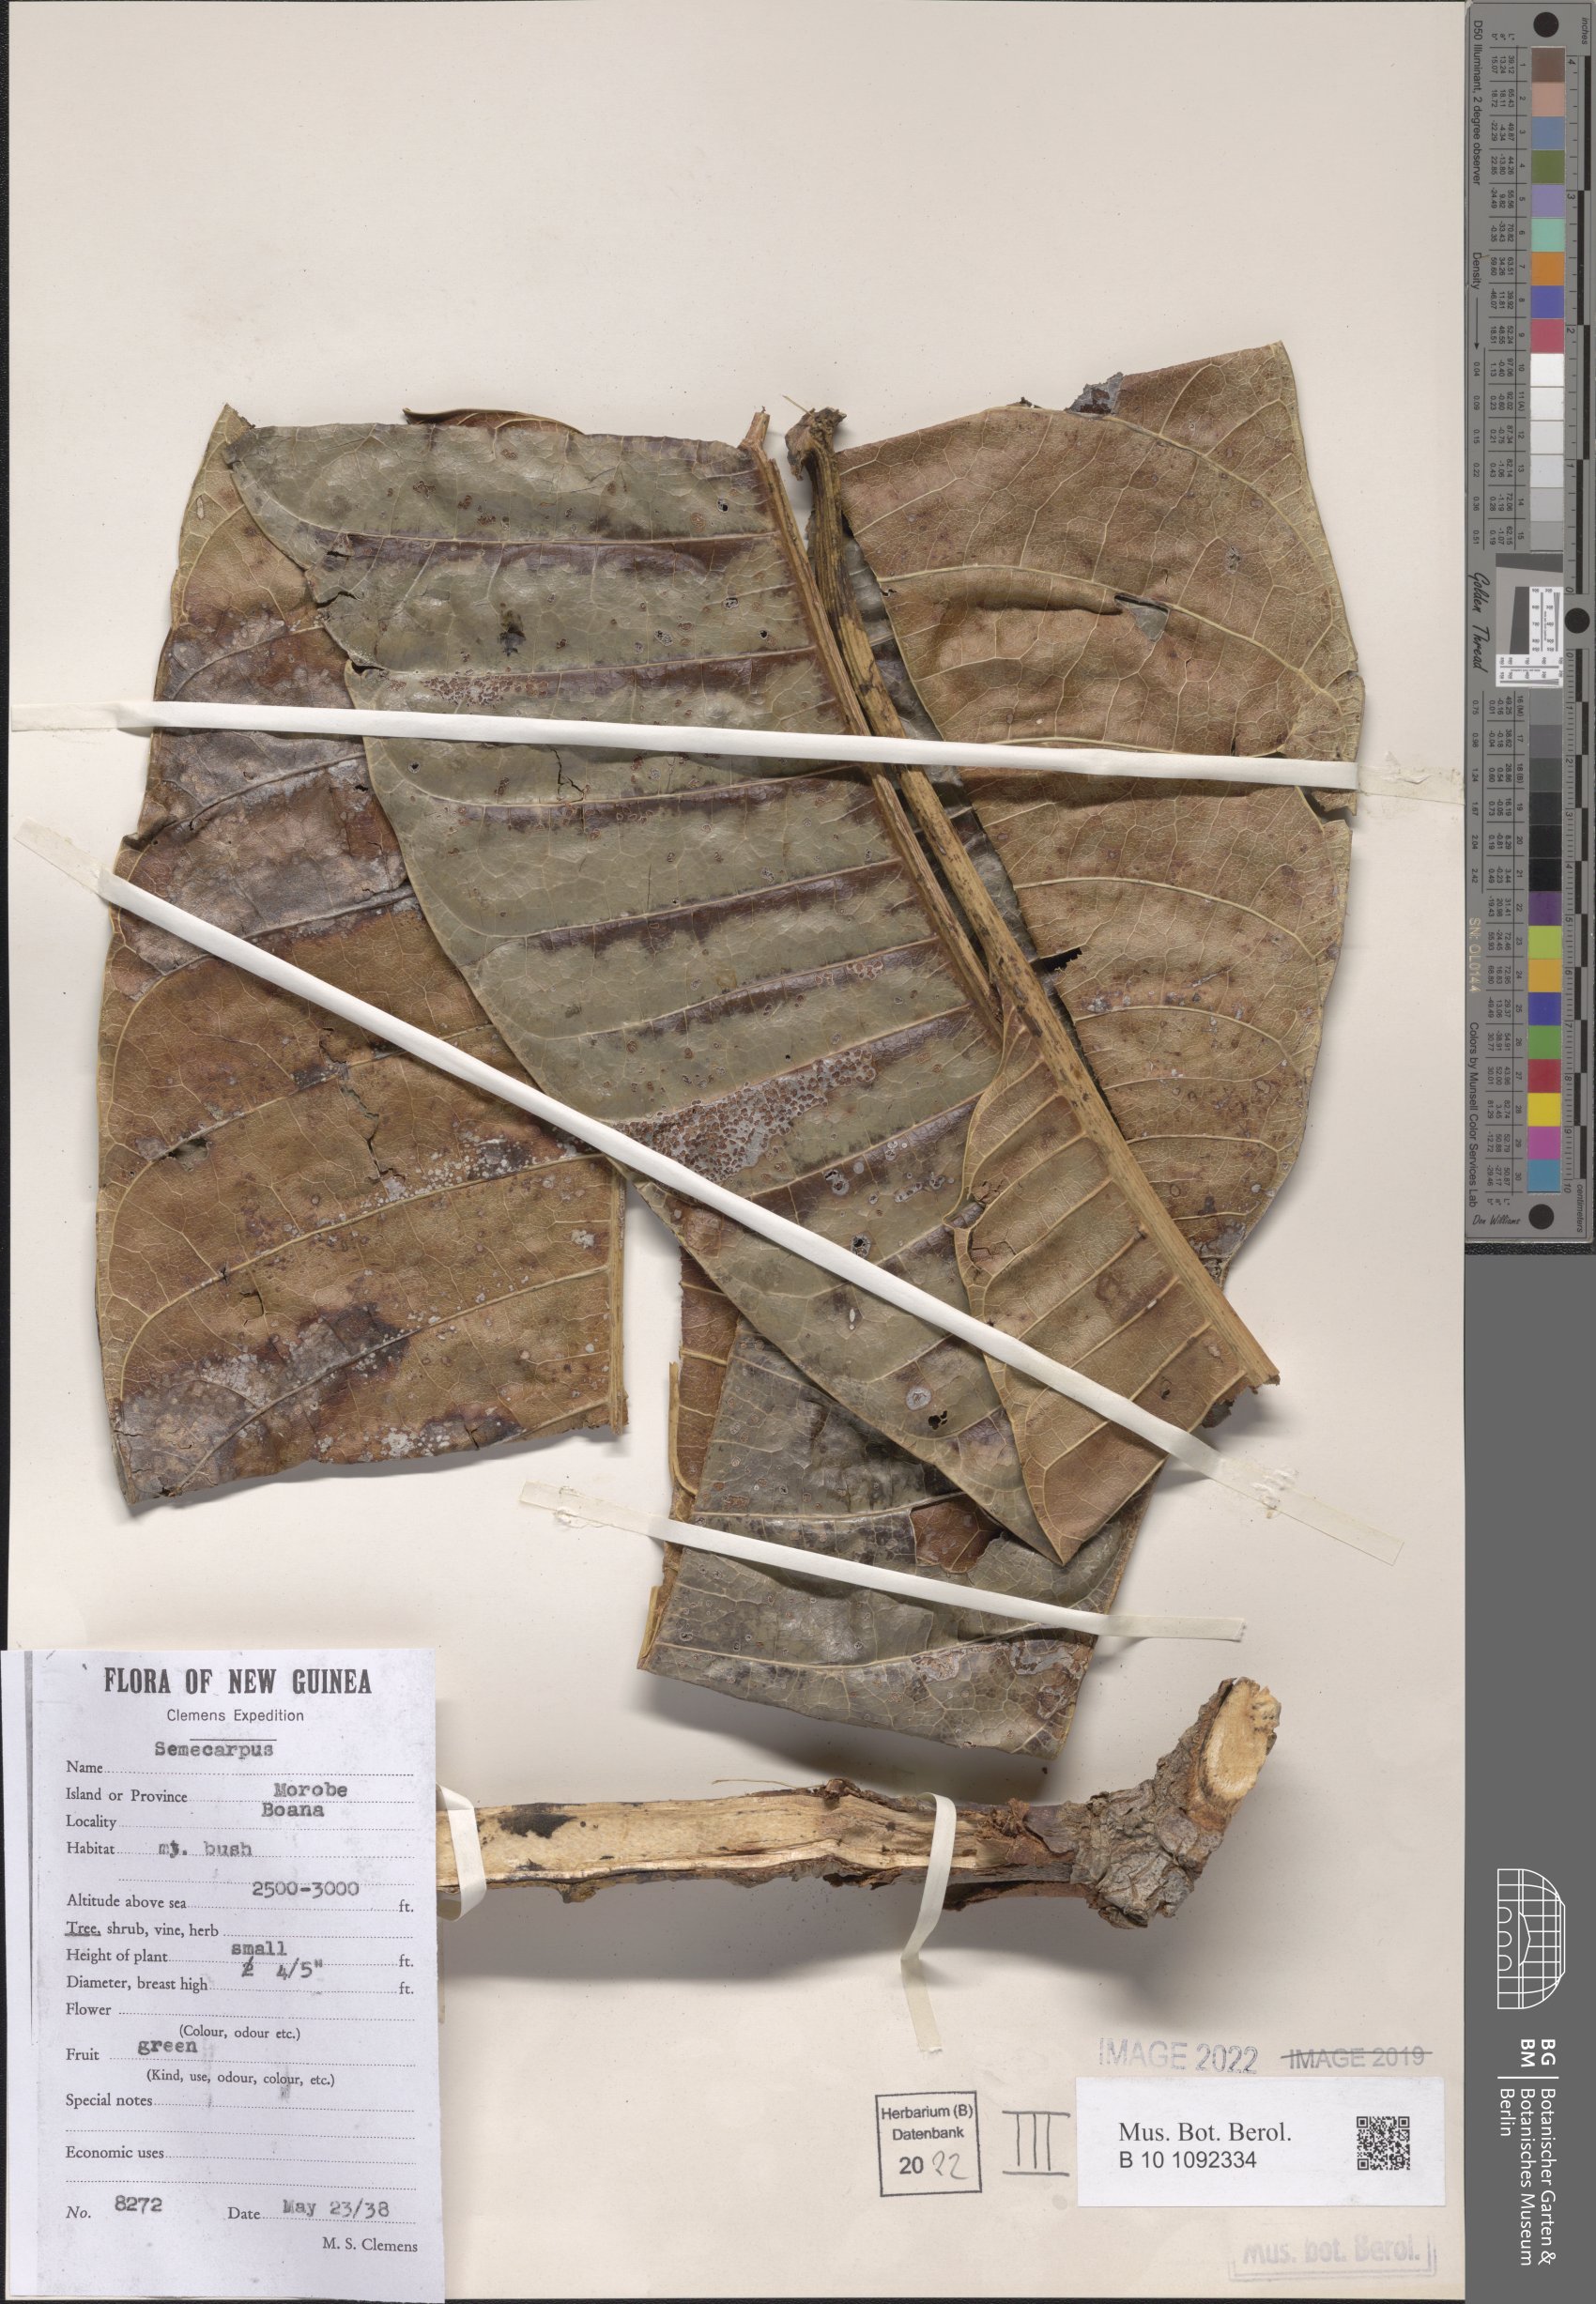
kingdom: Plantae
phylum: Tracheophyta
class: Magnoliopsida
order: Sapindales
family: Anacardiaceae
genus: Semecarpus
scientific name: Semecarpus
